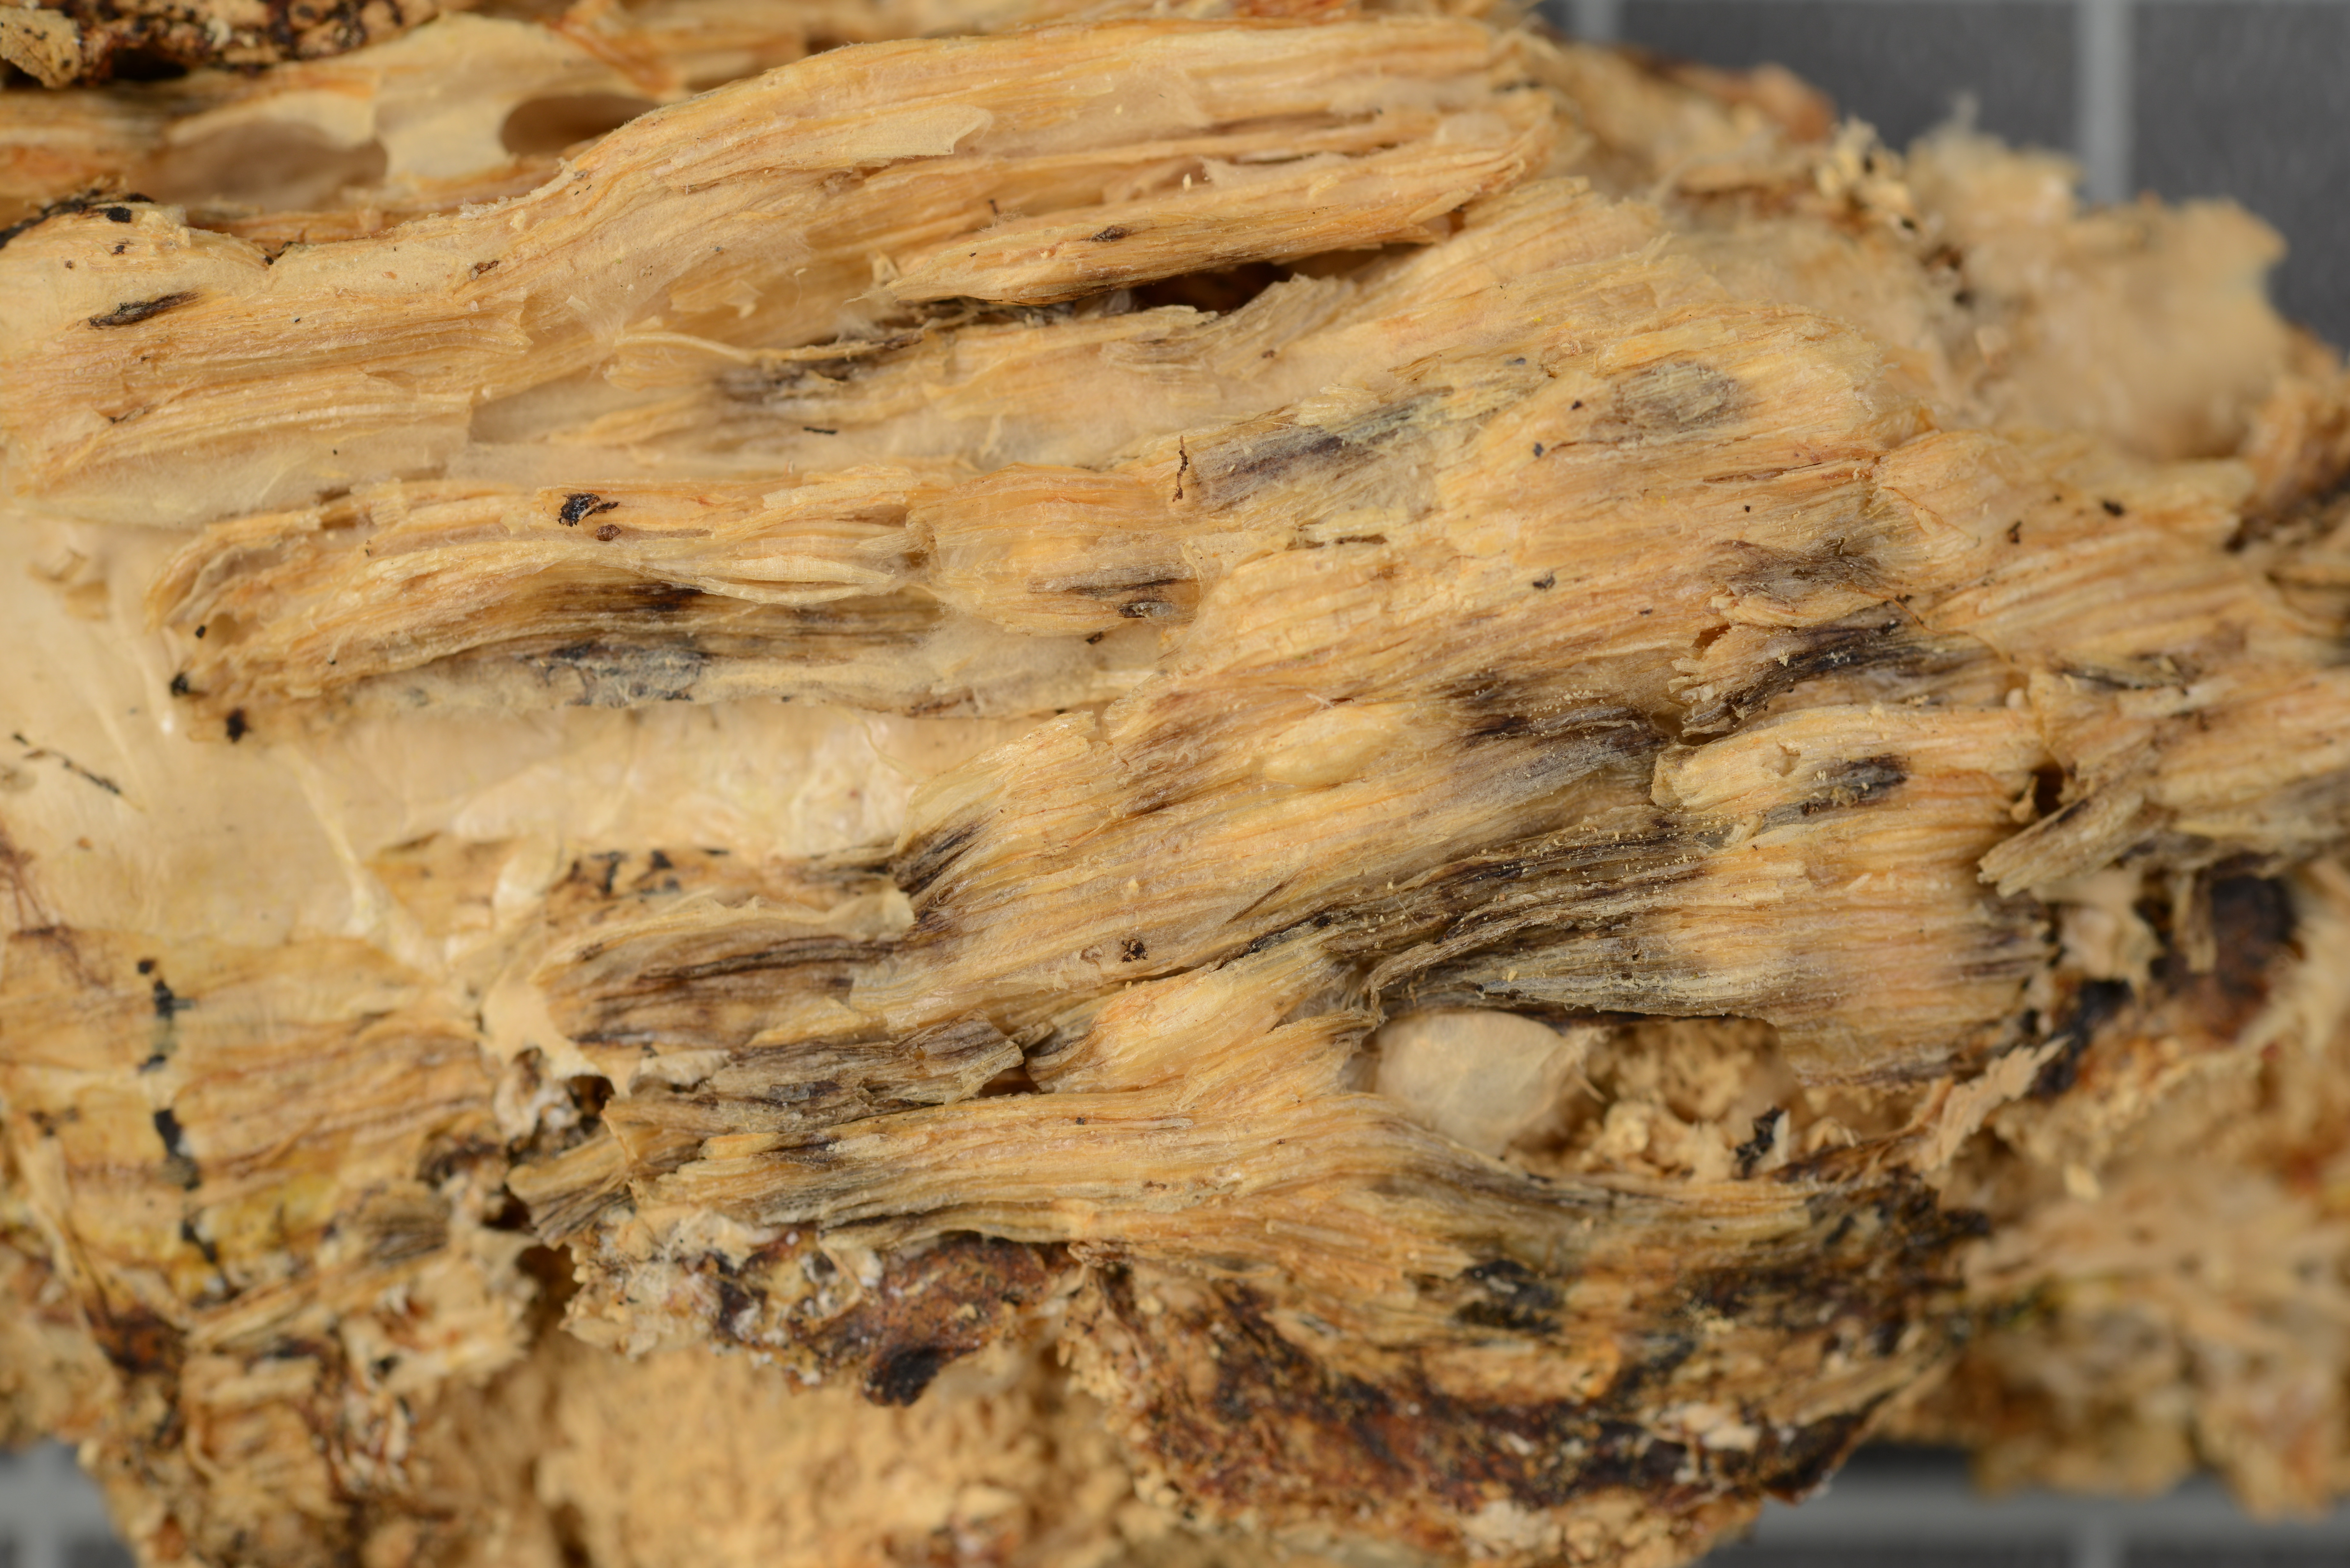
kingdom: Fungi
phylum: Basidiomycota
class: Agaricomycetes
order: Polyporales
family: Hyphodermataceae
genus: Intextomyces
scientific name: Intextomyces aureus
